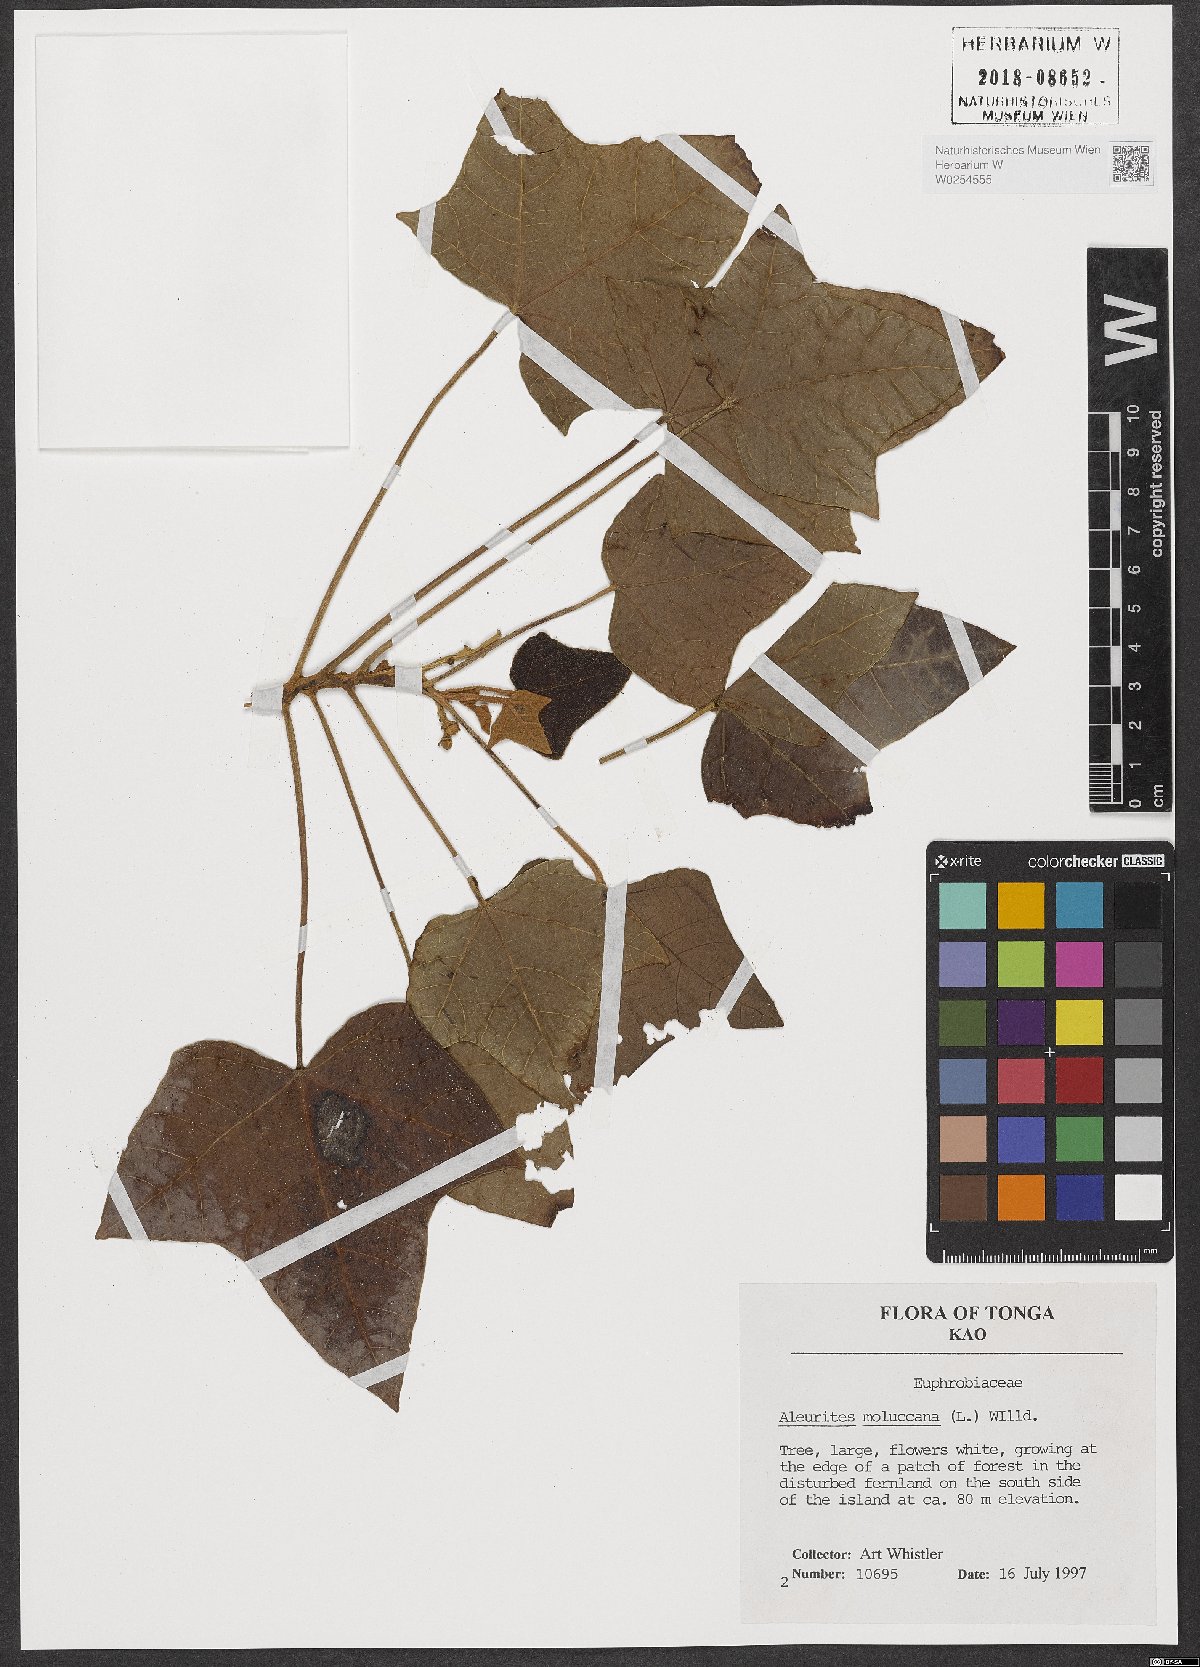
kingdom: Plantae
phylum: Tracheophyta
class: Magnoliopsida
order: Malpighiales
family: Euphorbiaceae
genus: Aleurites
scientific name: Aleurites moluccanus
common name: Candlenut tree
